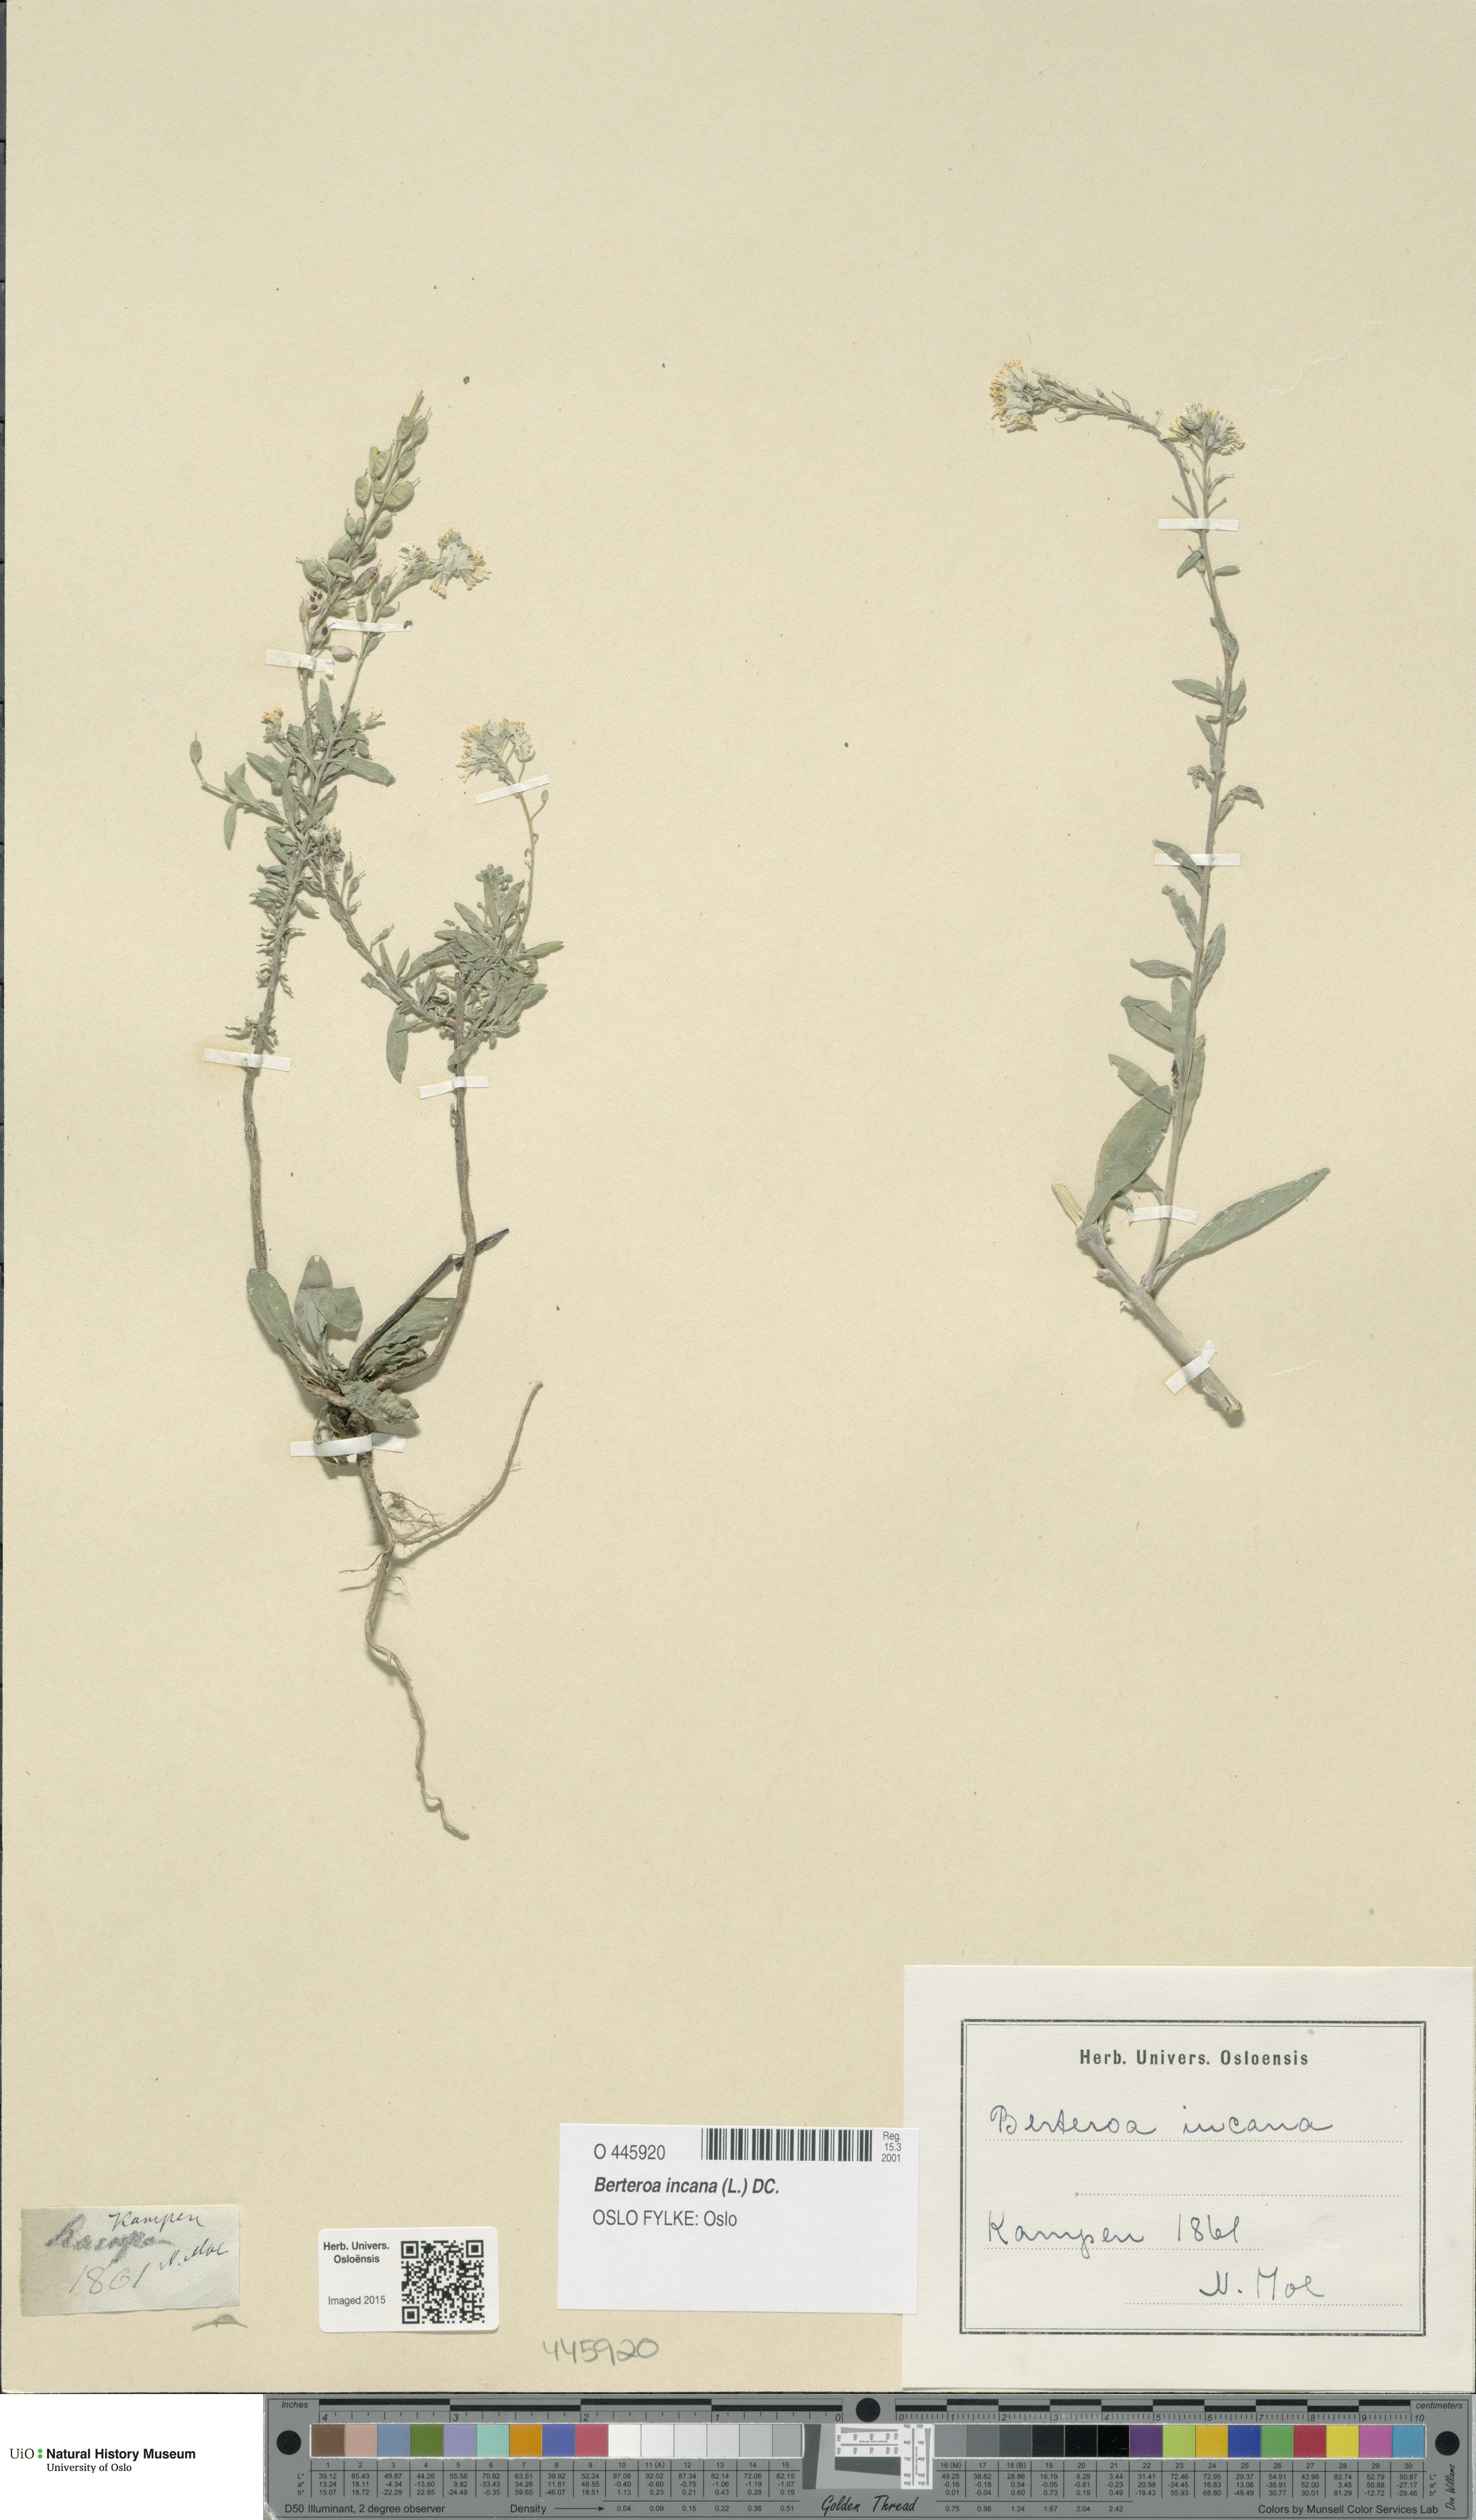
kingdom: Plantae
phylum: Tracheophyta
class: Magnoliopsida
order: Brassicales
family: Brassicaceae
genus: Berteroa
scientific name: Berteroa incana
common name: Hoary alison
